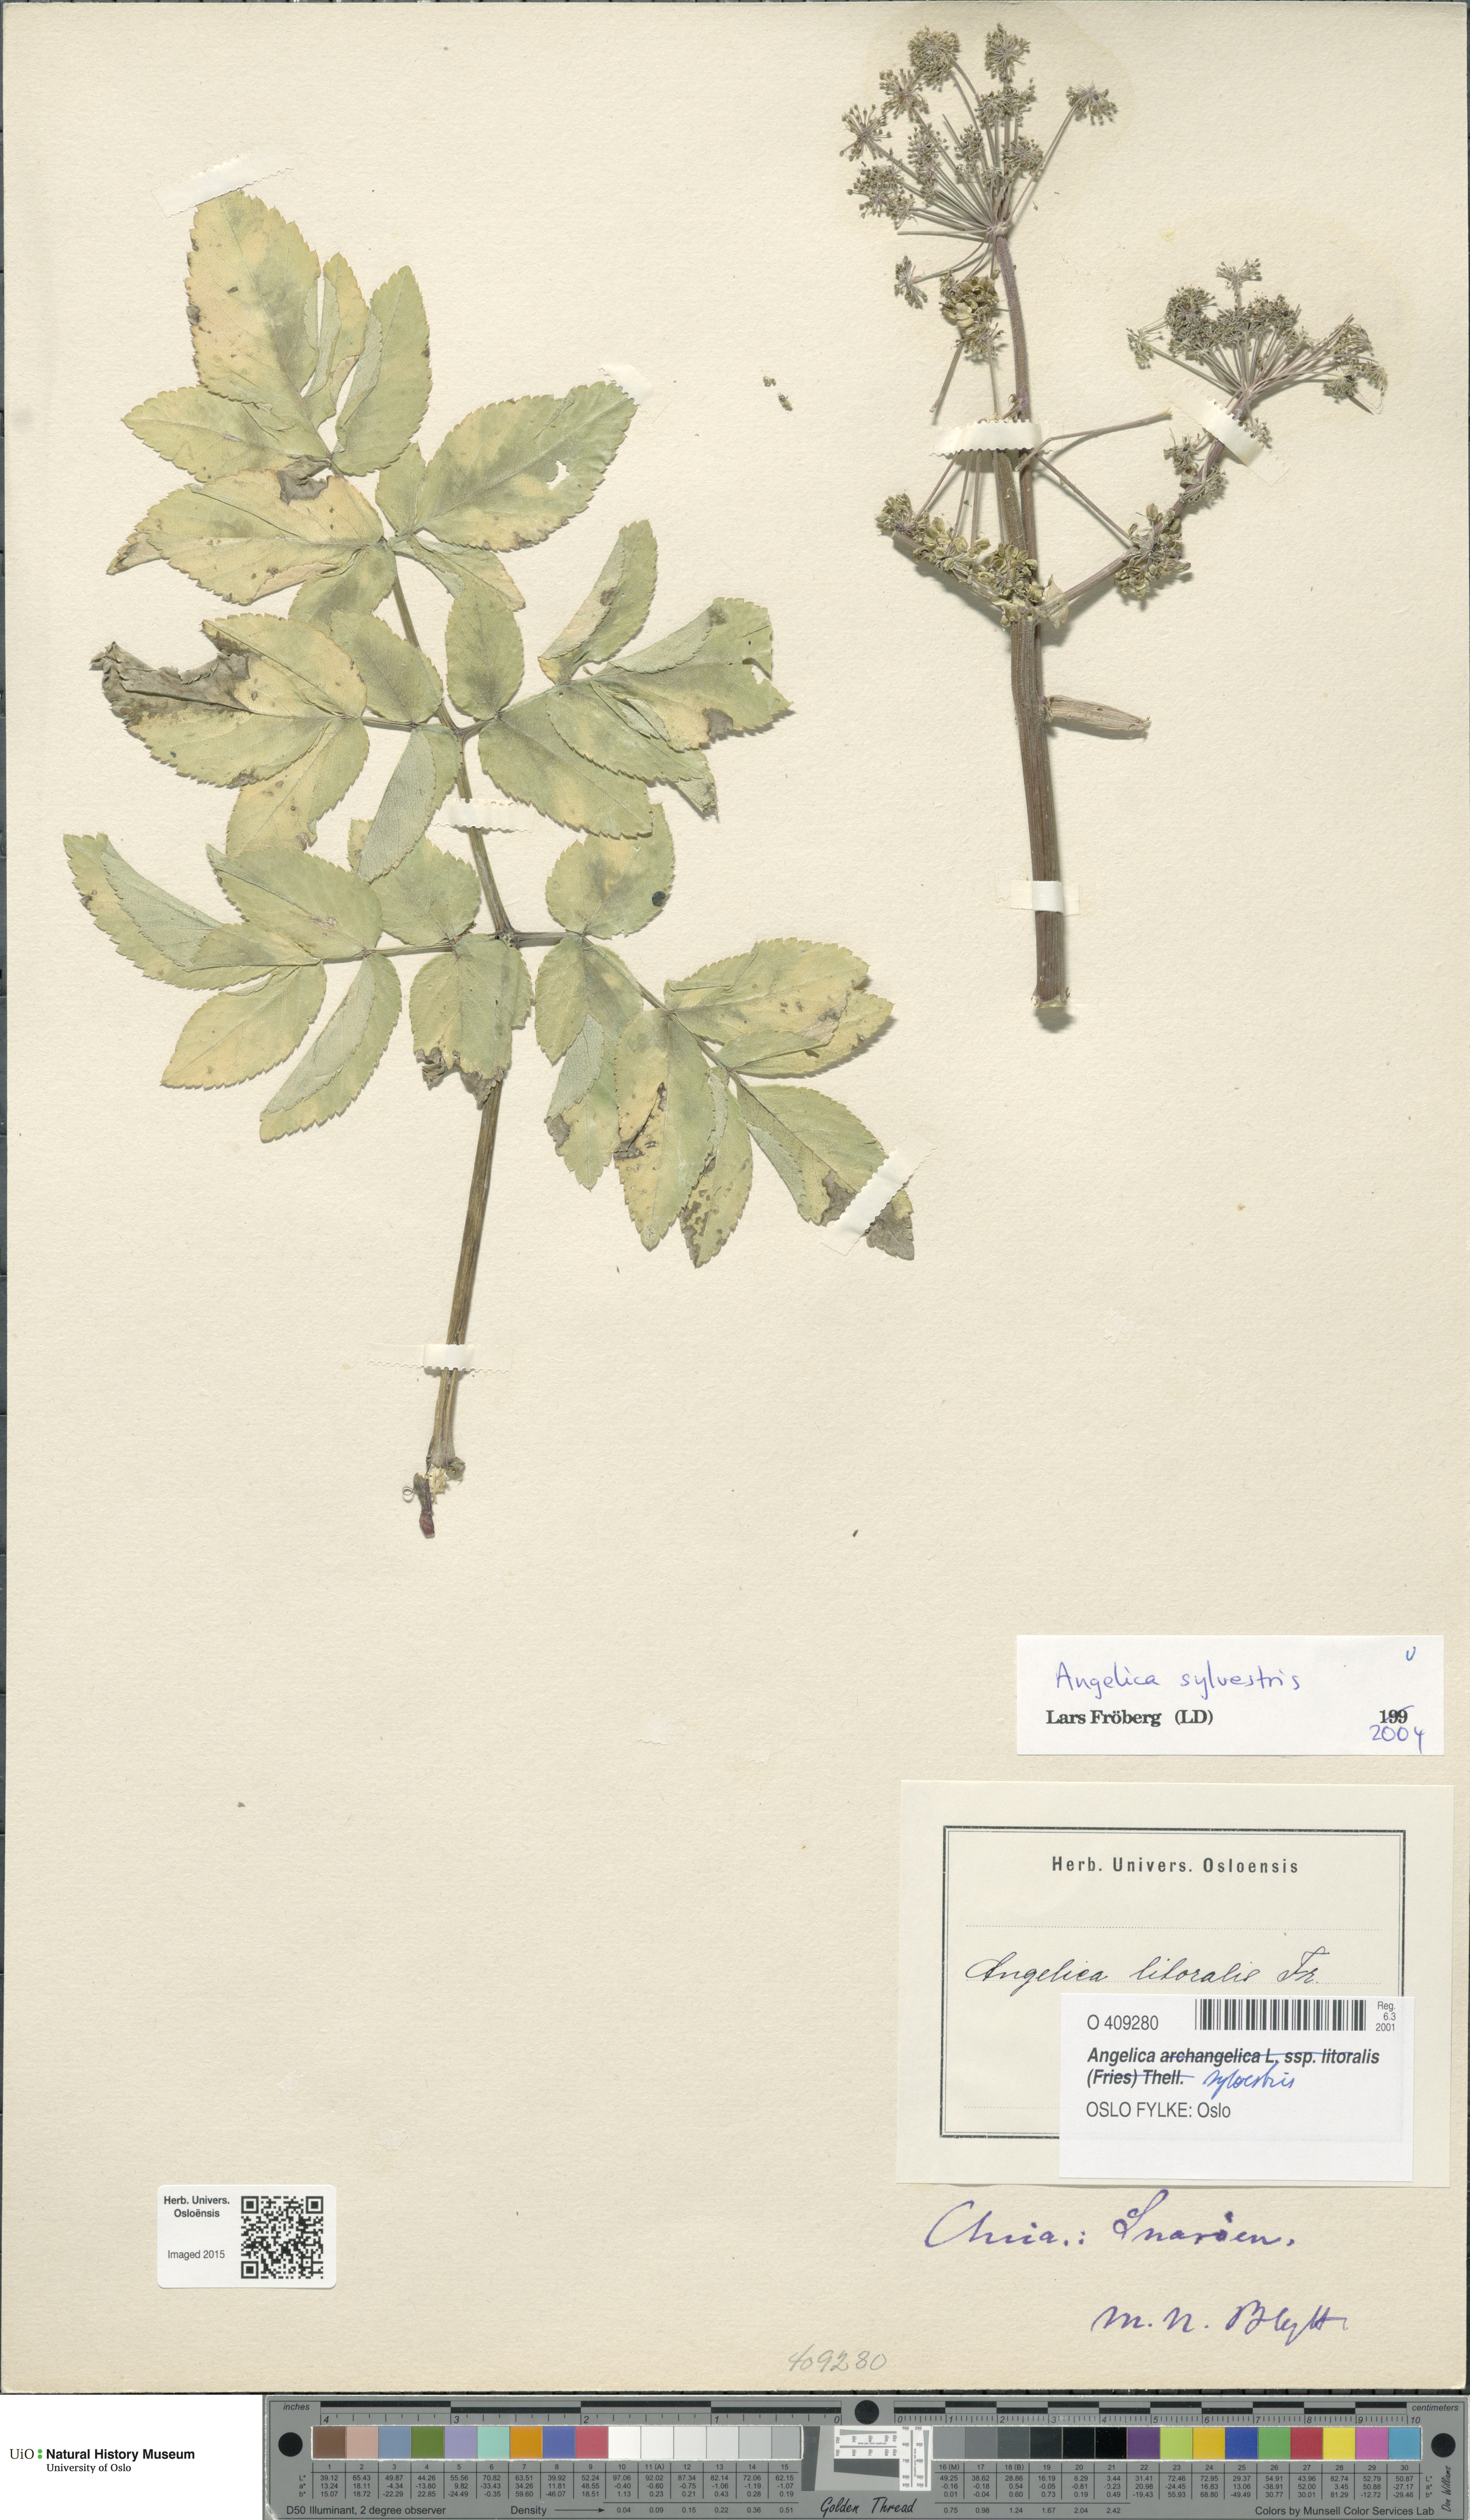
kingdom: Plantae
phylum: Tracheophyta
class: Magnoliopsida
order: Apiales
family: Apiaceae
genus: Angelica
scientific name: Angelica sylvestris
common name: Wild angelica
